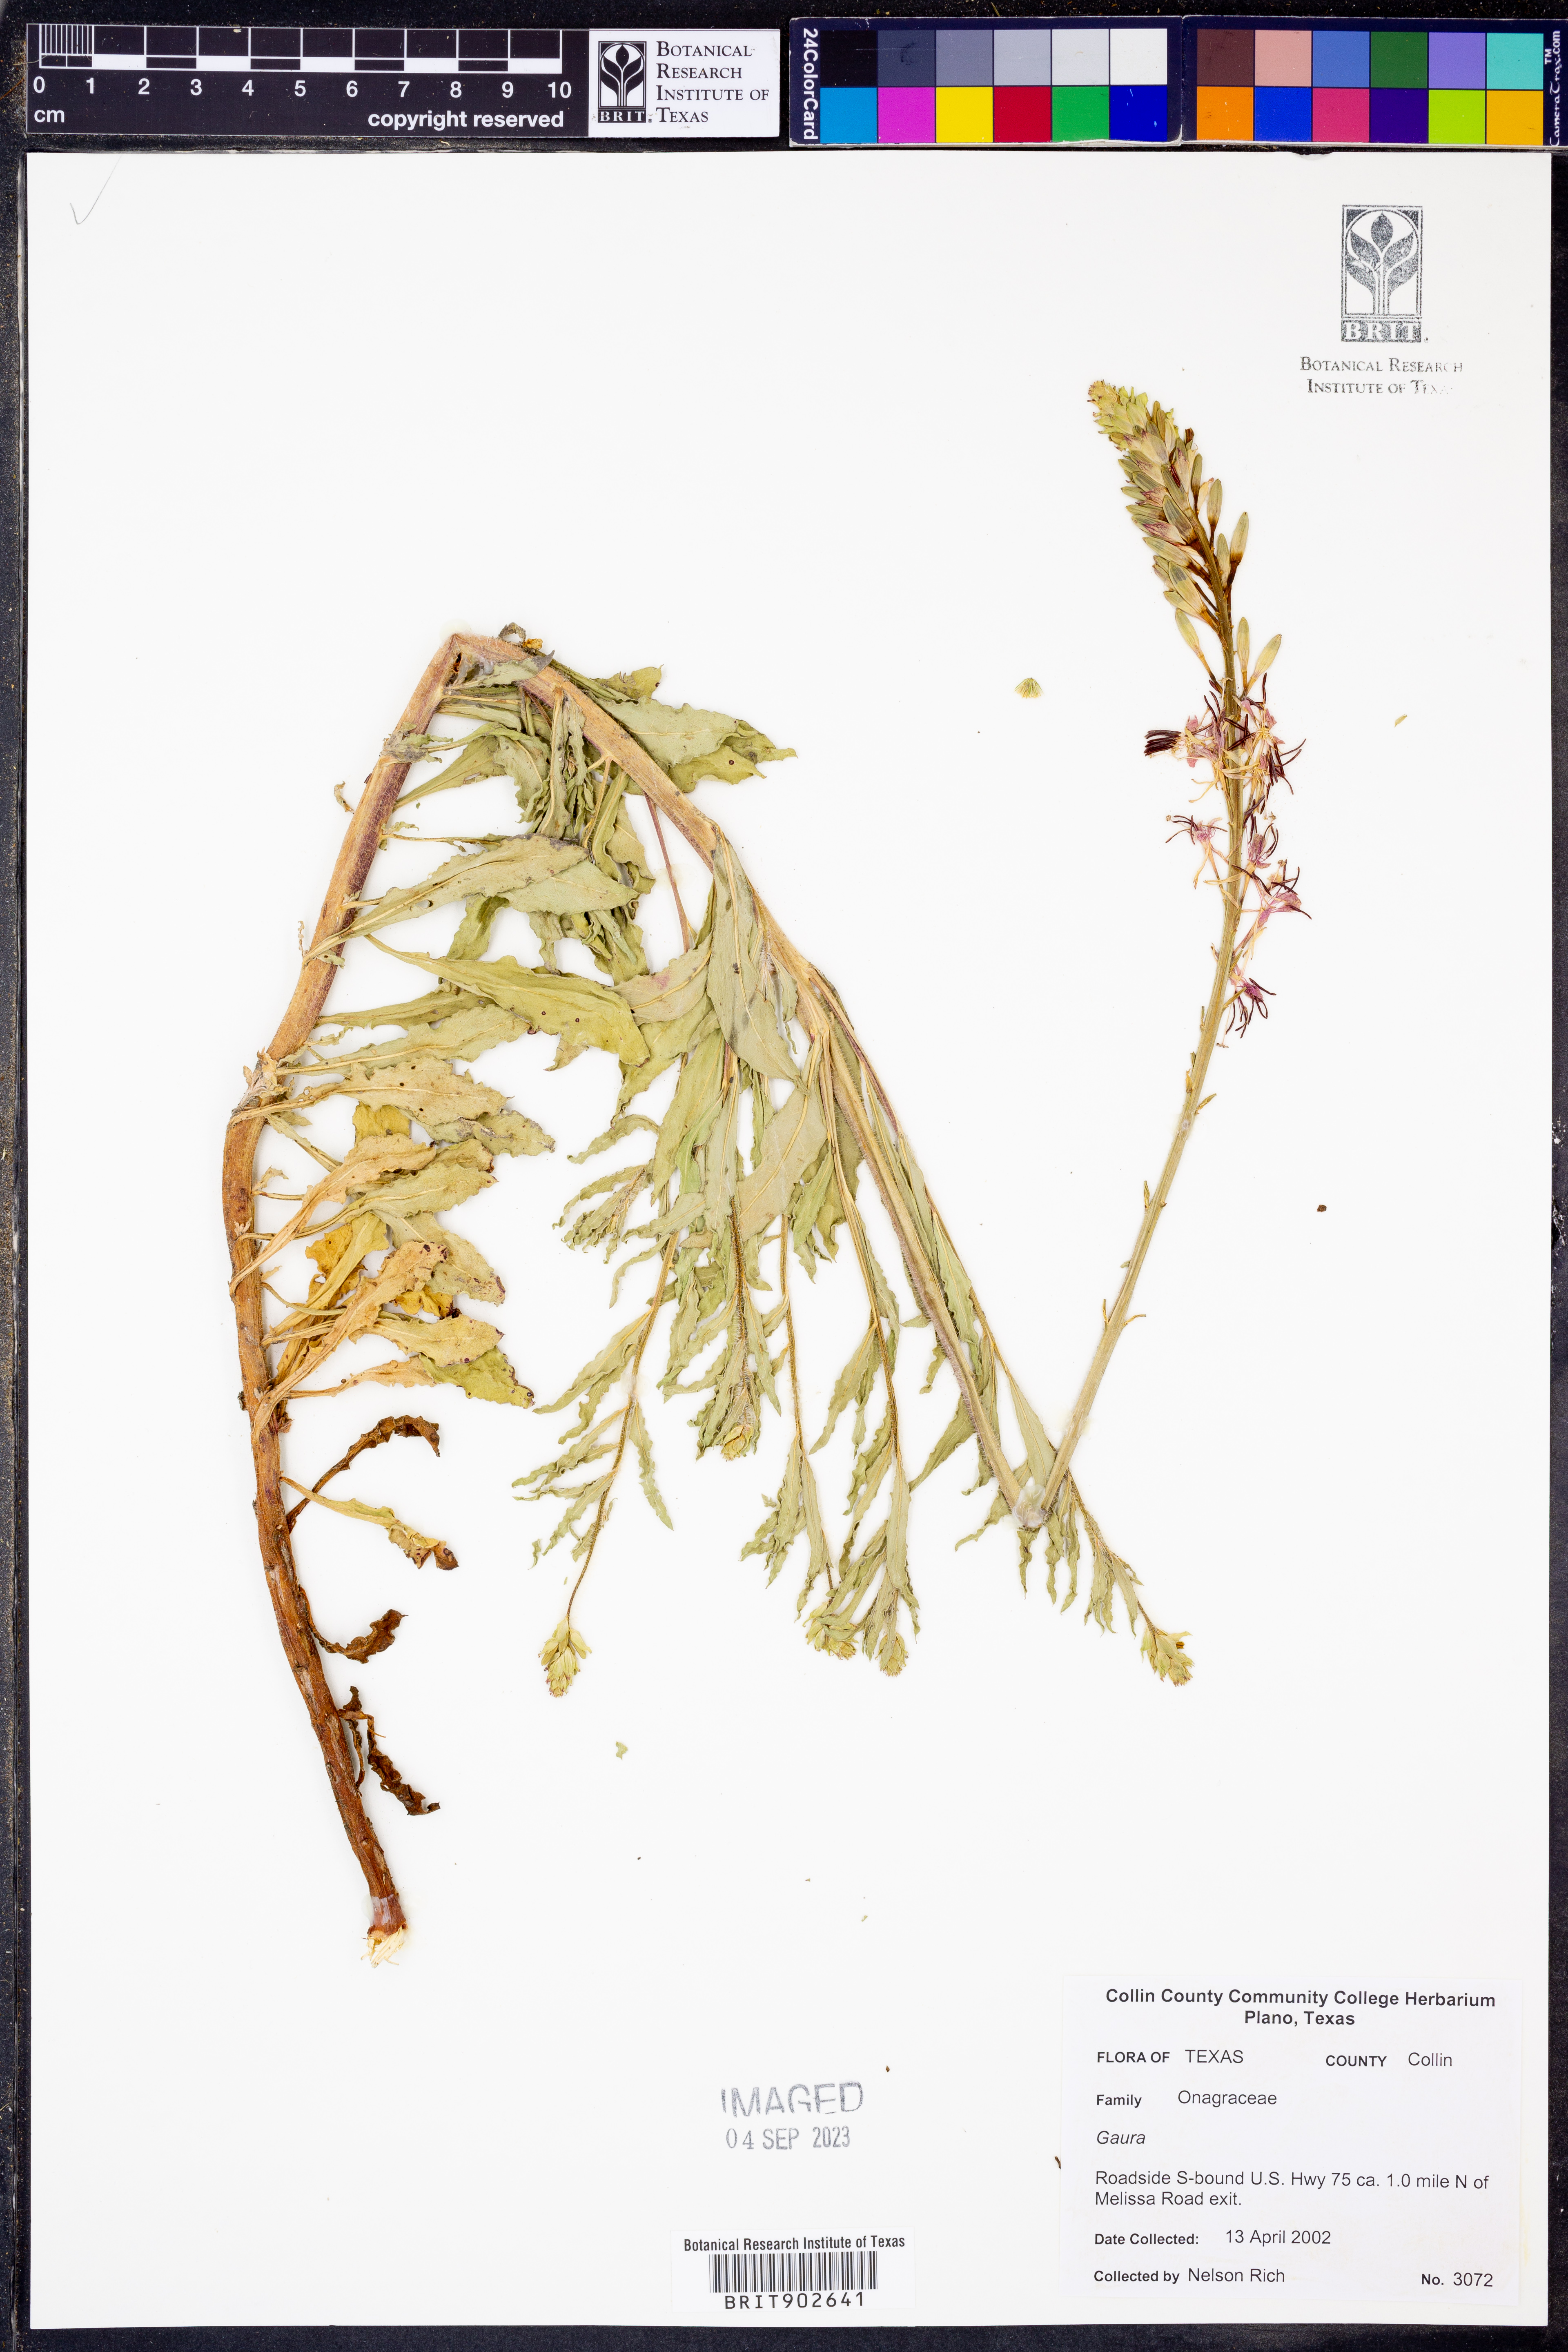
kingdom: Plantae
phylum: Tracheophyta
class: Magnoliopsida
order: Myrtales
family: Onagraceae
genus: Oenothera
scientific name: Oenothera
